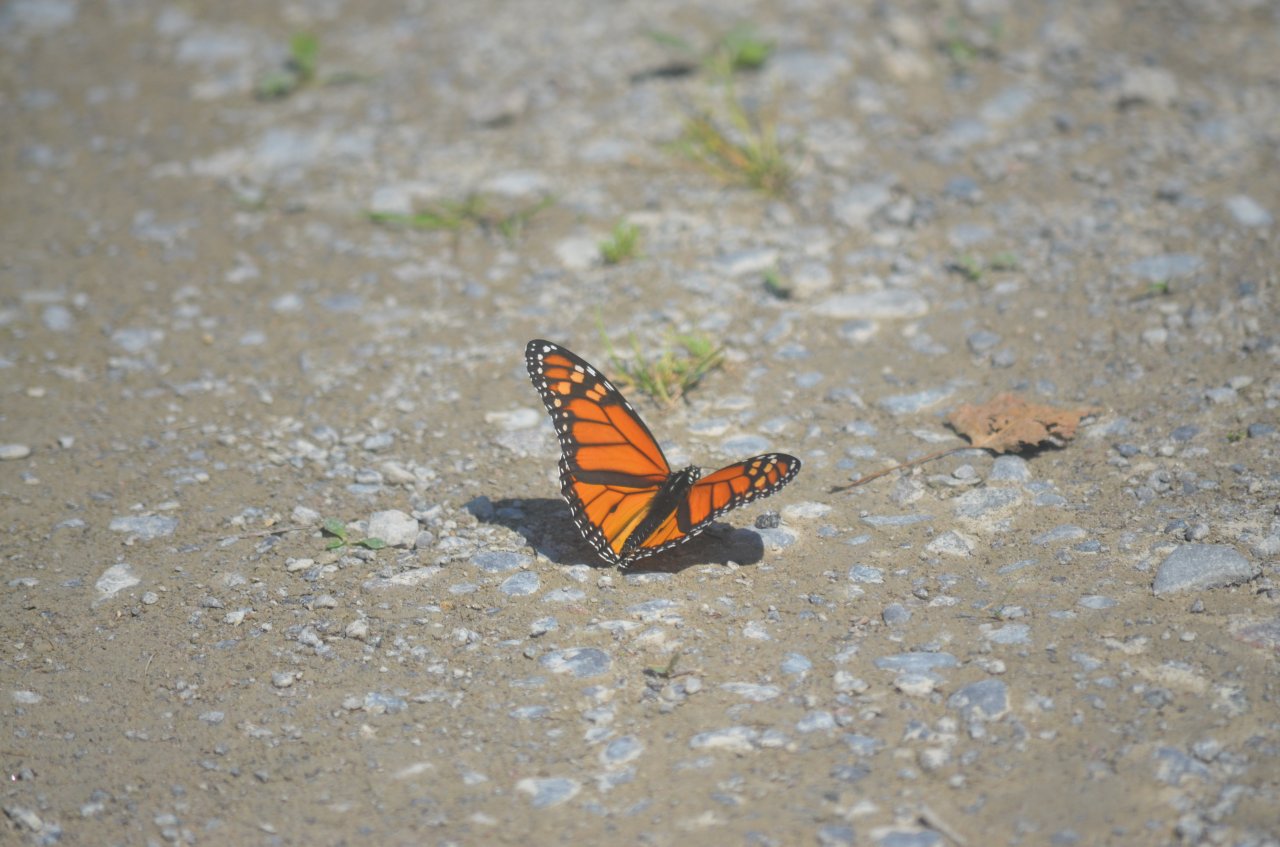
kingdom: Animalia
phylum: Arthropoda
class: Insecta
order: Lepidoptera
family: Nymphalidae
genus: Danaus
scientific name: Danaus plexippus
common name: Monarch
